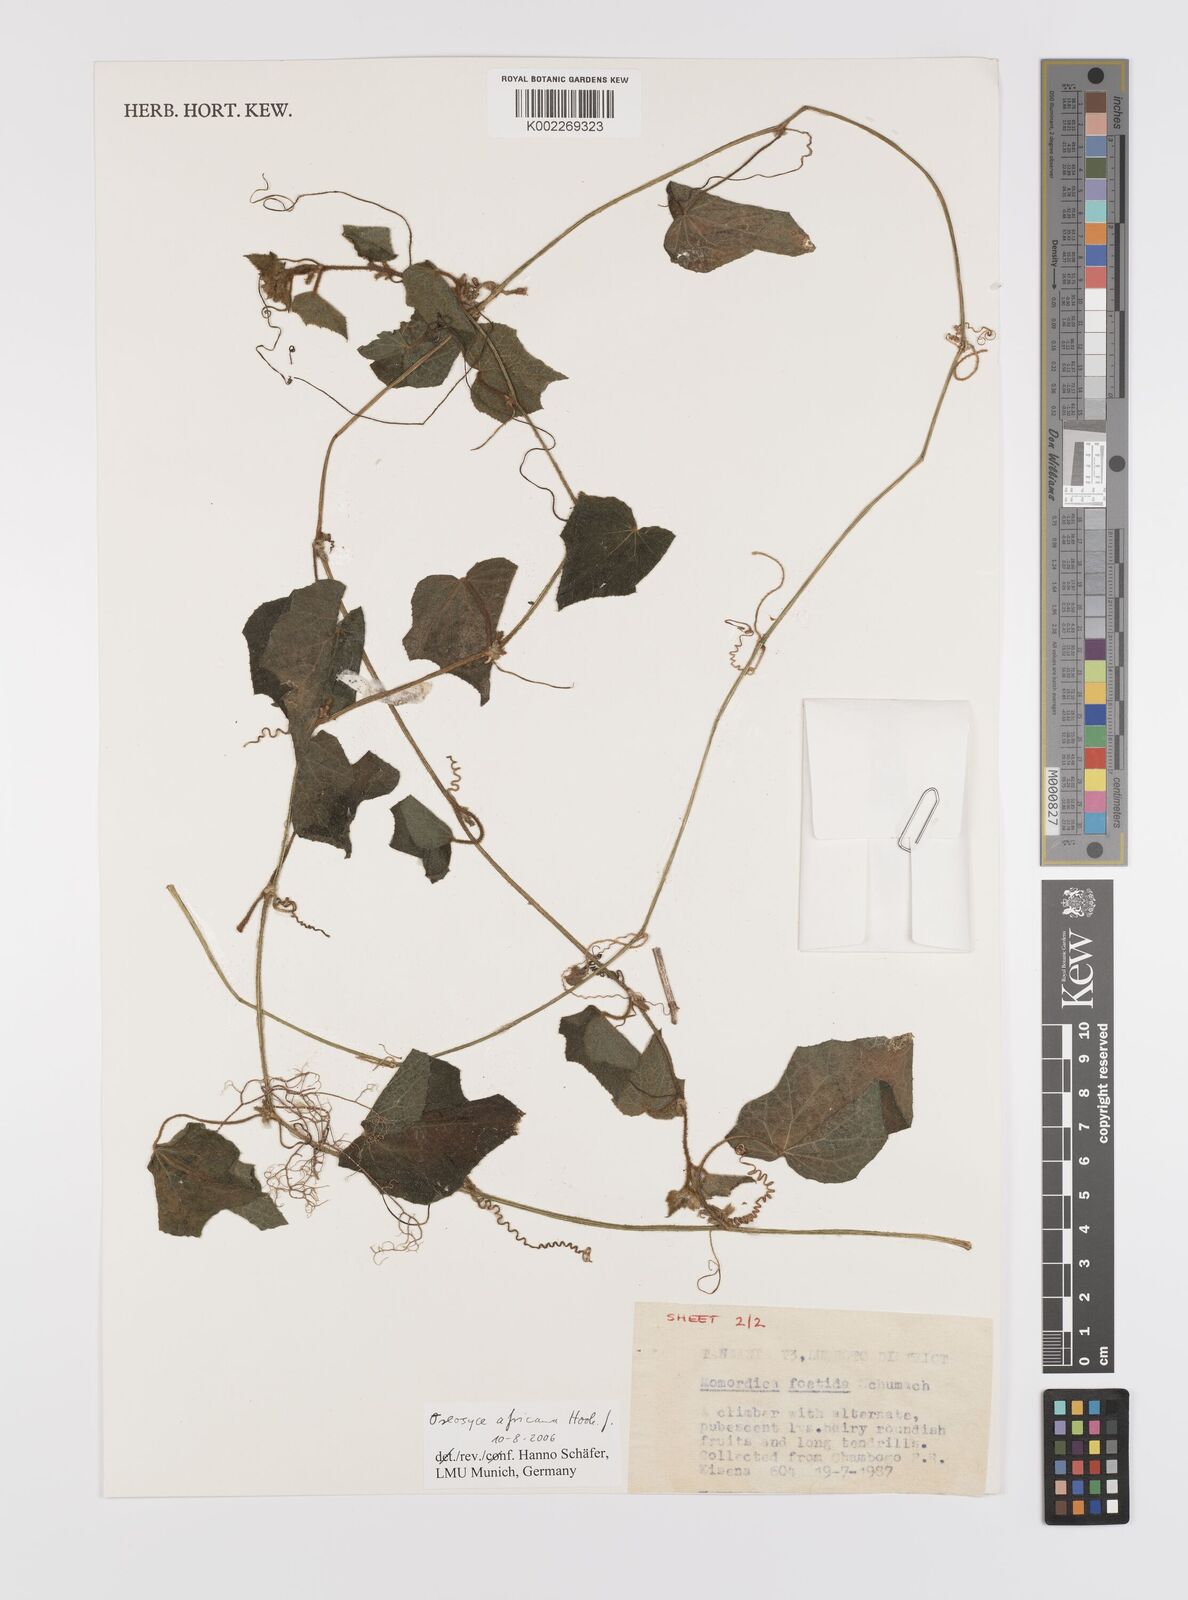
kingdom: Plantae
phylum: Tracheophyta
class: Magnoliopsida
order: Cucurbitales
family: Cucurbitaceae
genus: Cucumis
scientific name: Cucumis oreosyce
